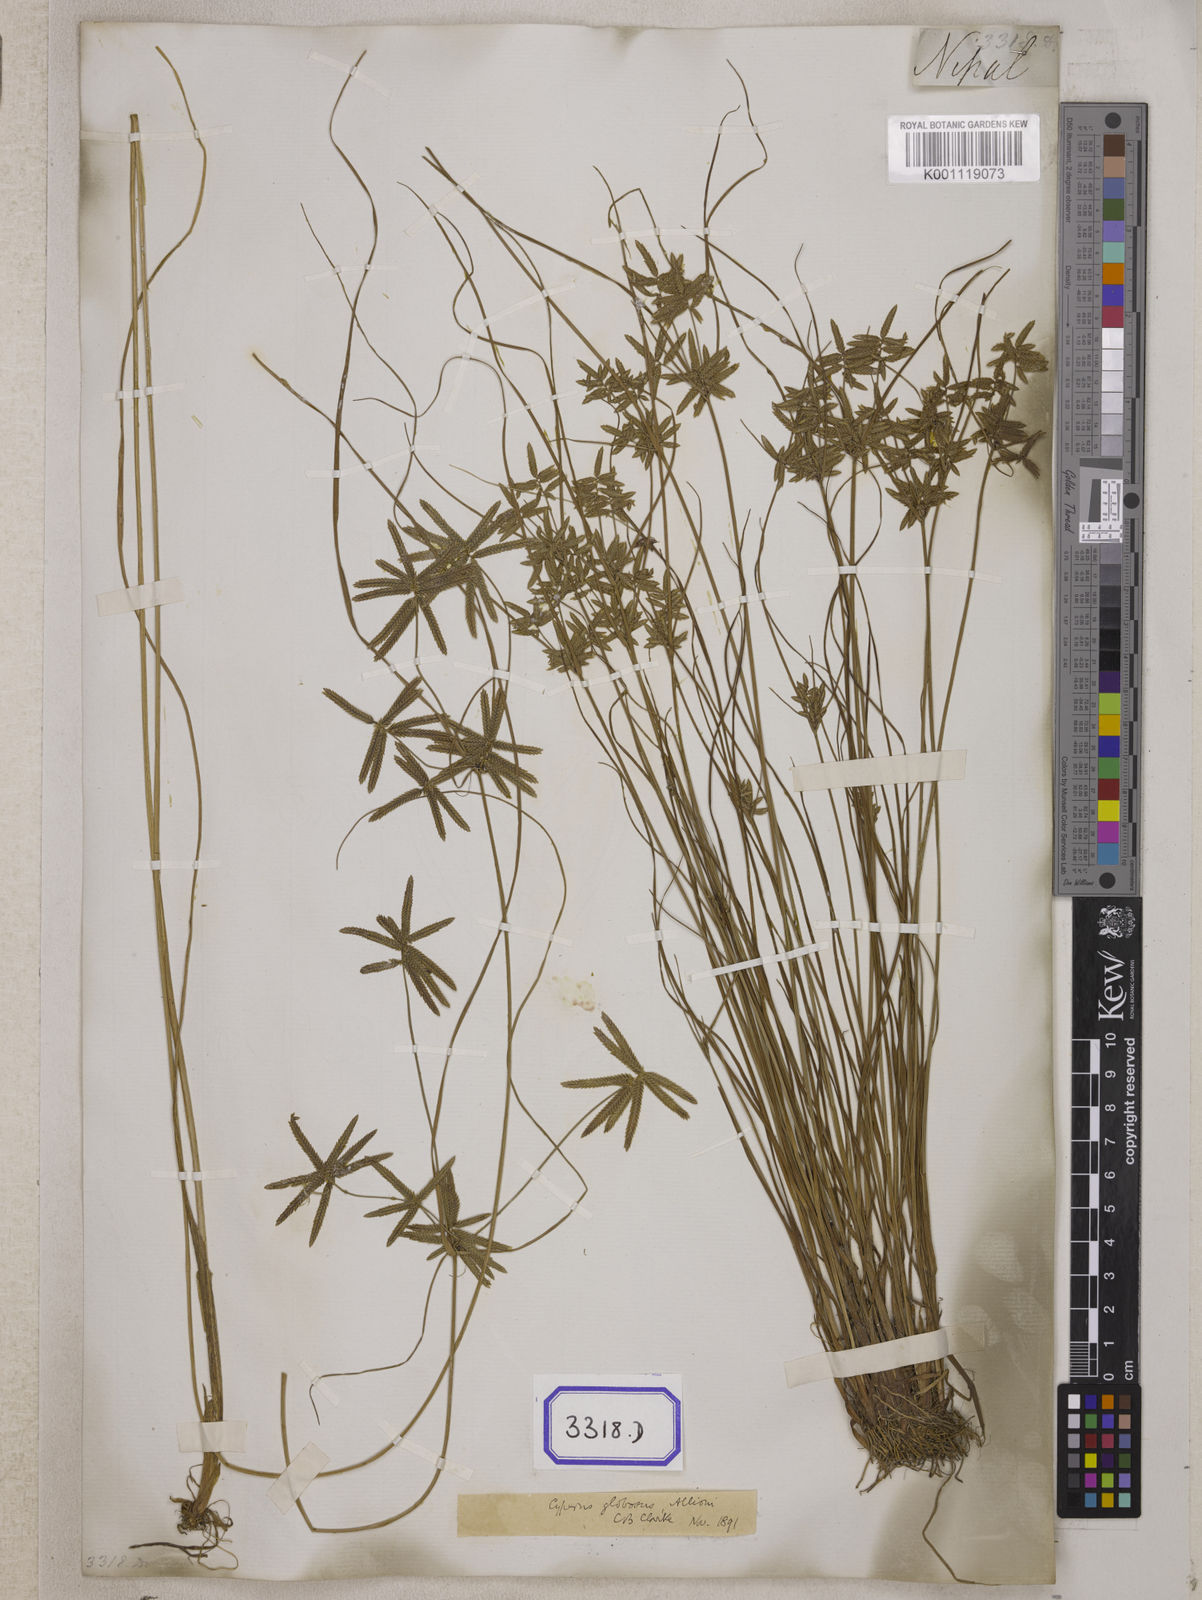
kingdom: Plantae
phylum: Tracheophyta
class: Liliopsida
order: Poales
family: Cyperaceae
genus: Cyperus
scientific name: Cyperus
